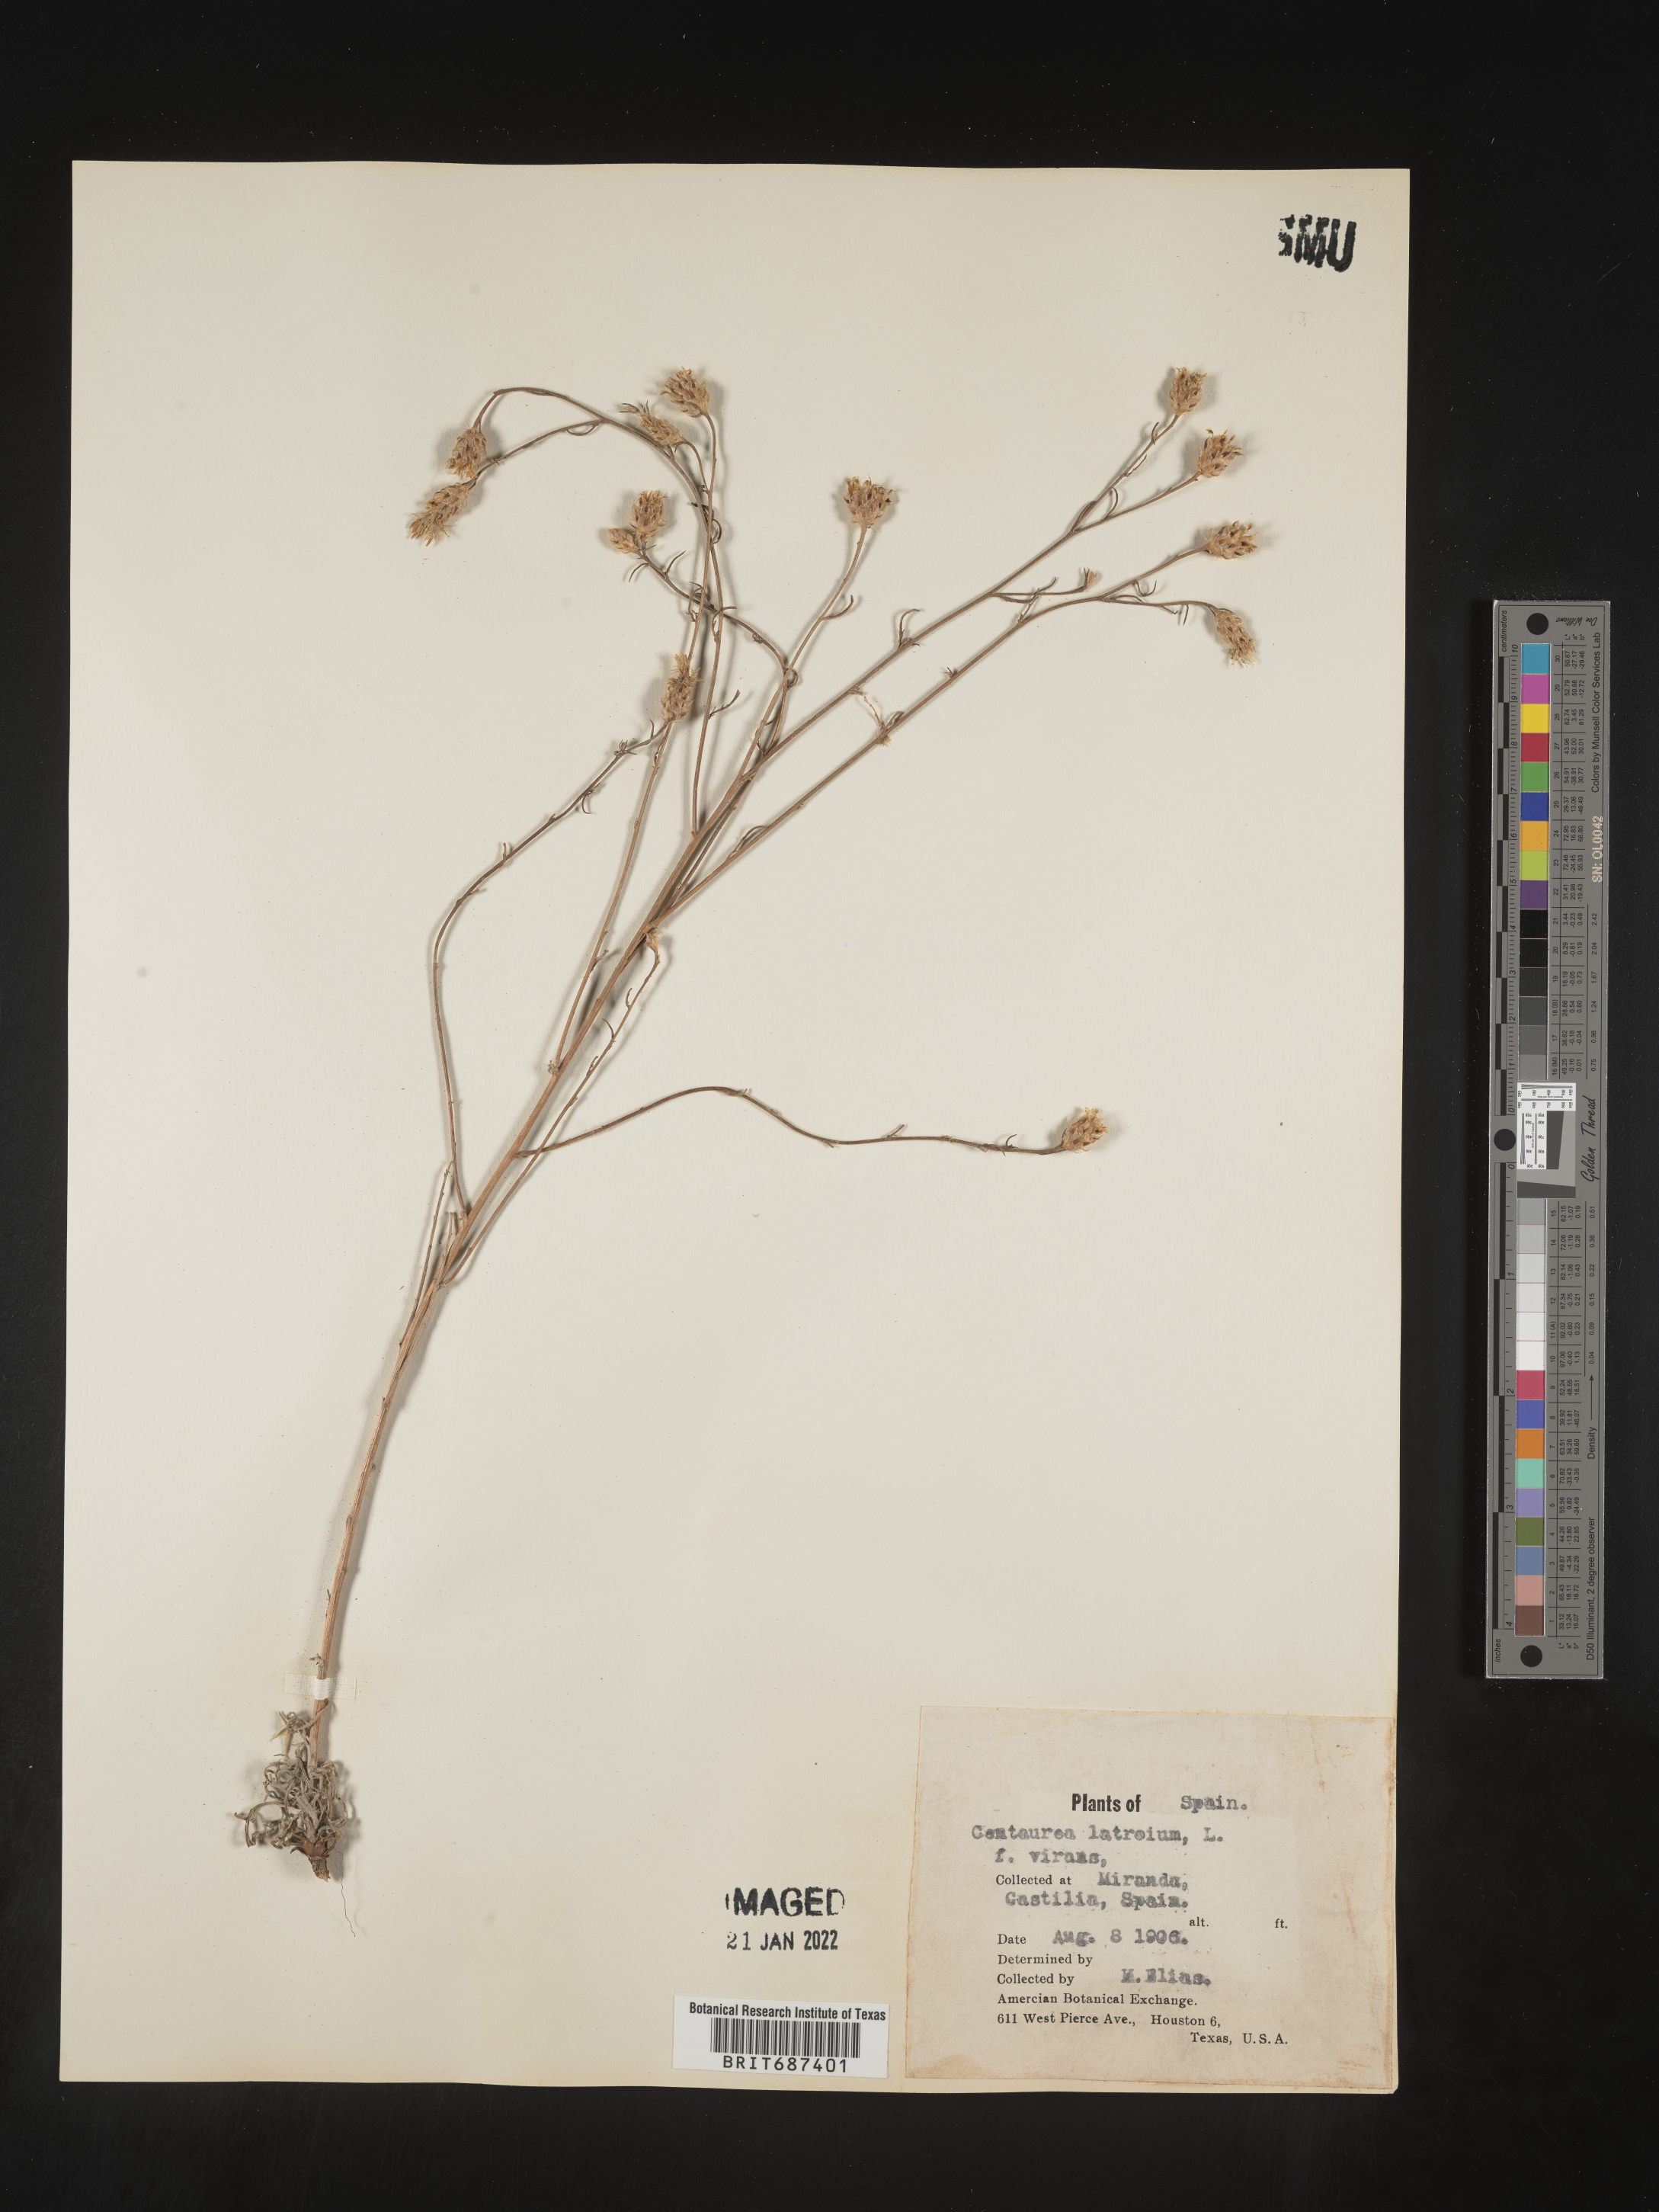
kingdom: Plantae
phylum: Tracheophyta
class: Magnoliopsida
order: Asterales
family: Asteraceae
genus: Centaurea
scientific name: Centaurea
